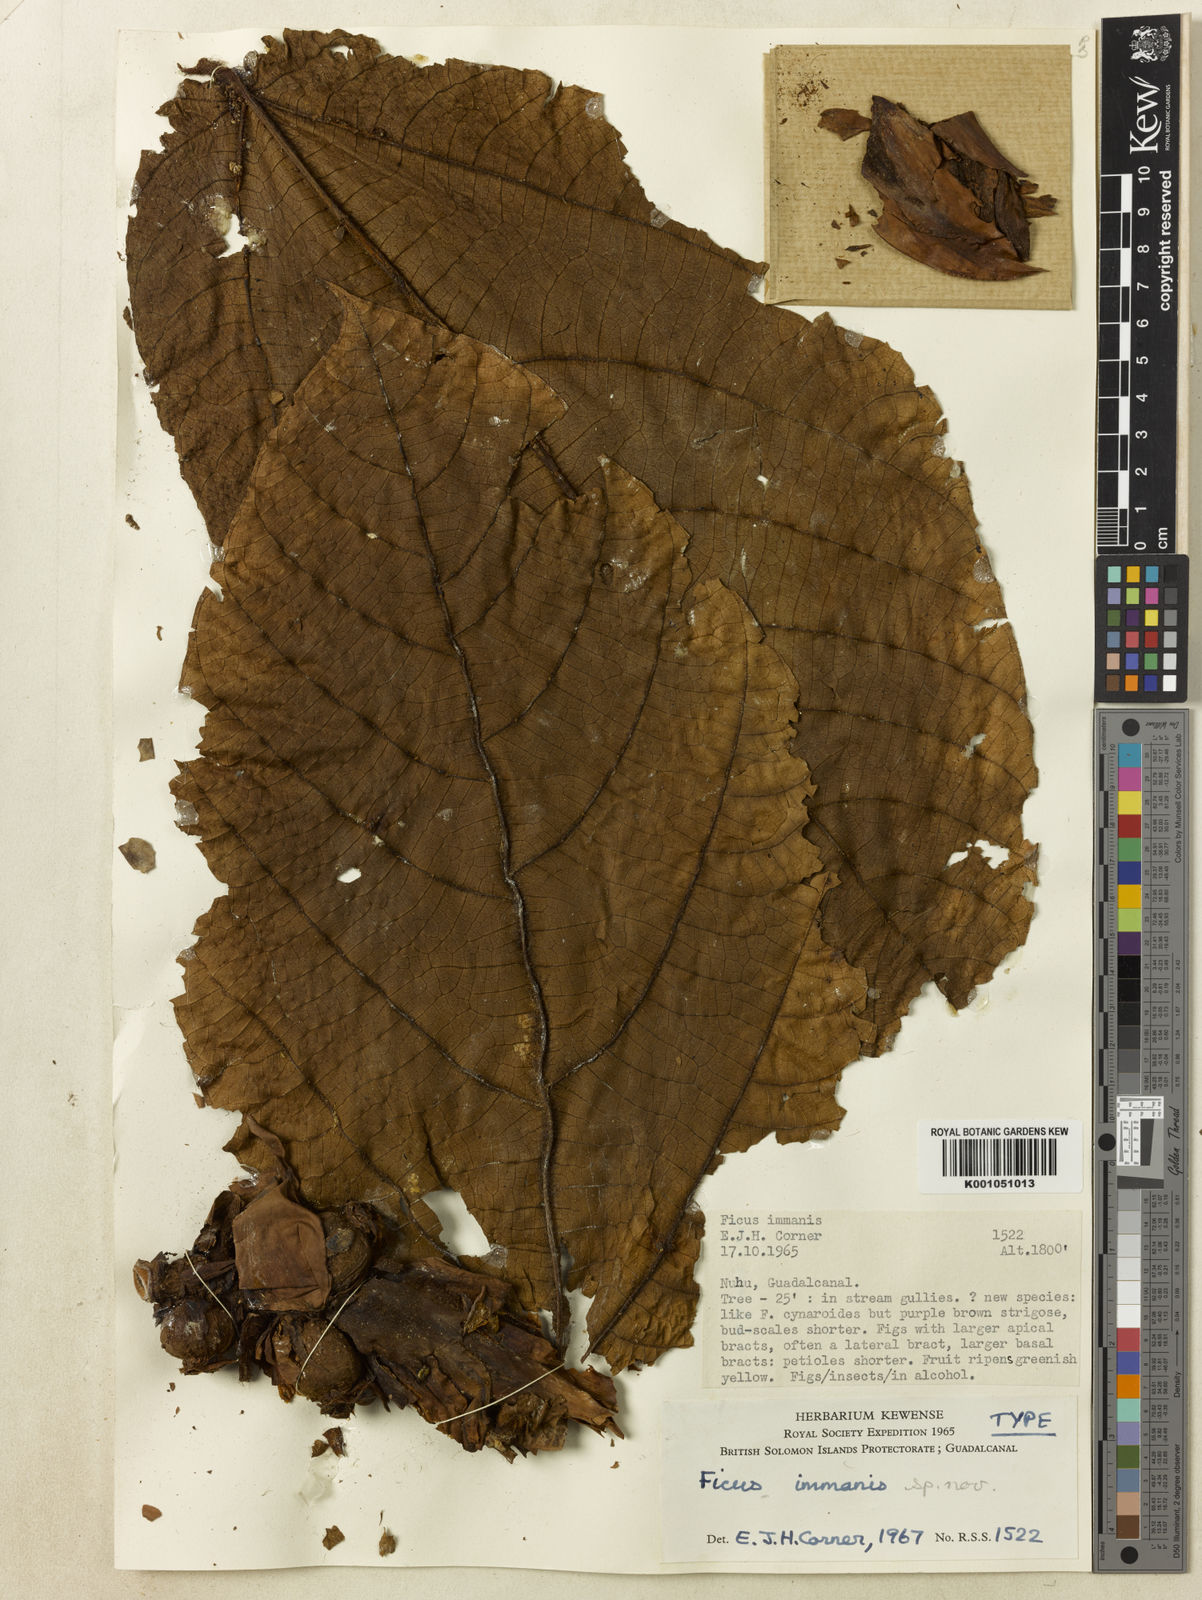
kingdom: Plantae
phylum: Tracheophyta
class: Magnoliopsida
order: Rosales
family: Moraceae
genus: Ficus
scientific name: Ficus immanis
